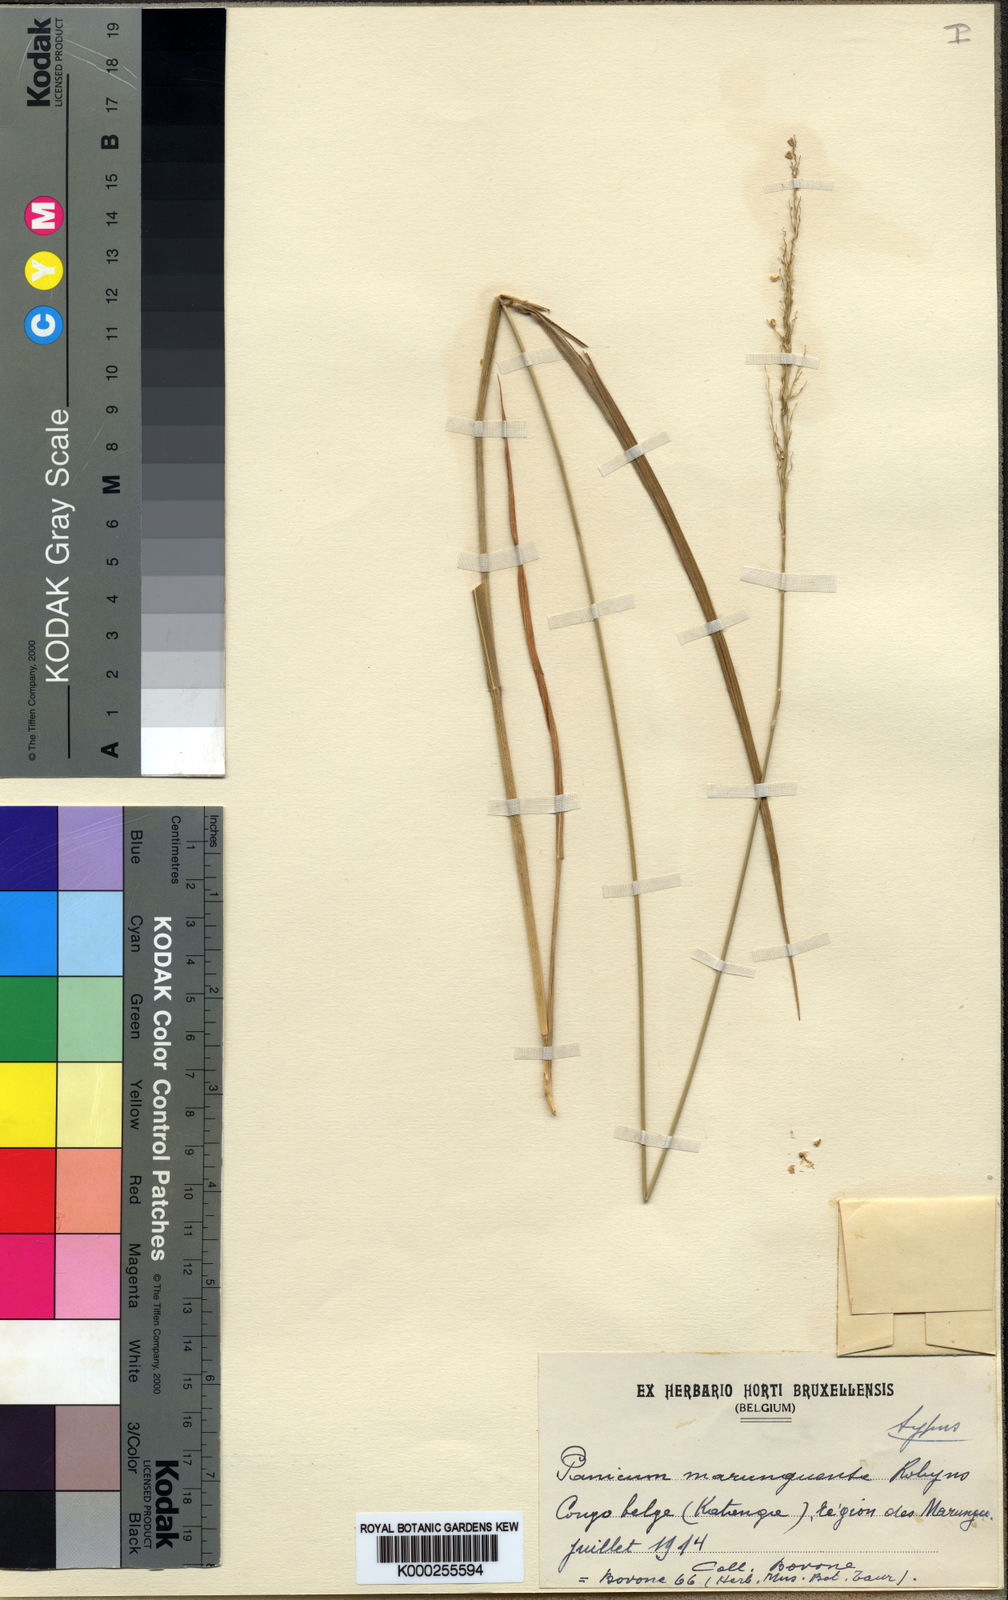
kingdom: Plantae
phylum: Tracheophyta
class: Liliopsida
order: Poales
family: Poaceae
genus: Trichanthecium
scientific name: Trichanthecium margaritiferum
